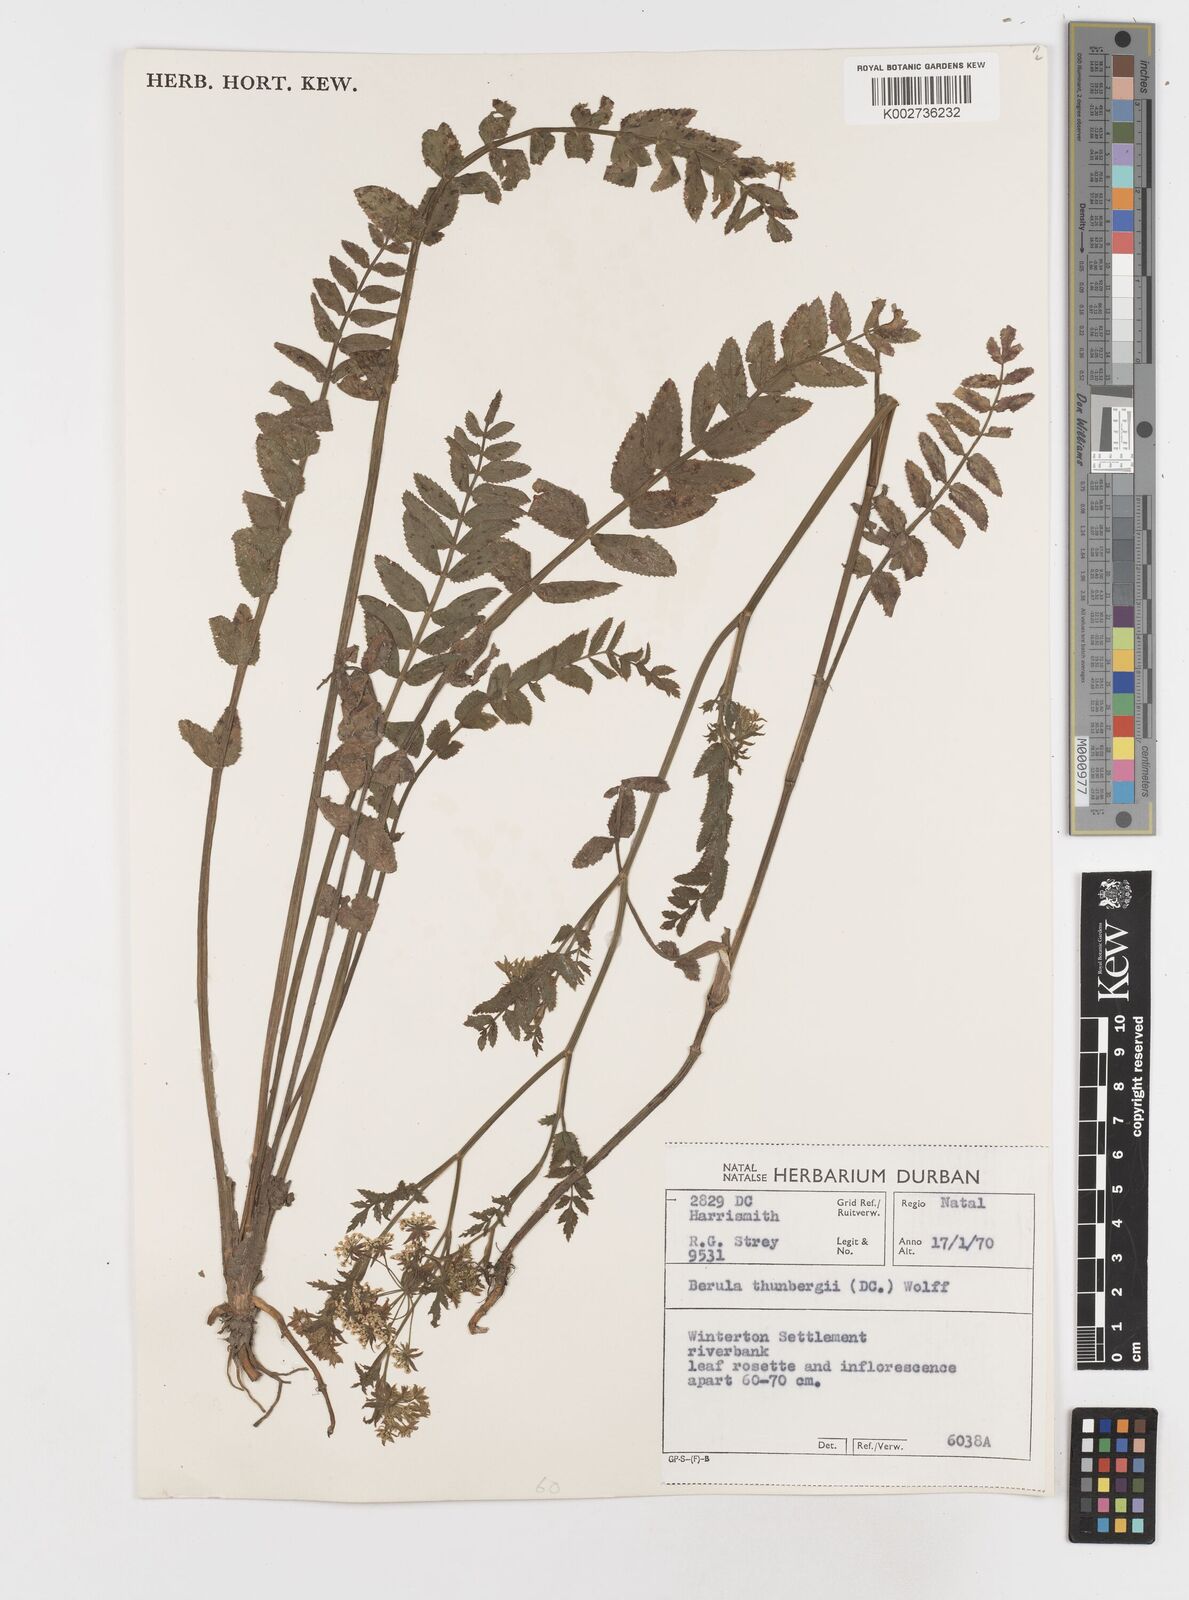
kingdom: Plantae
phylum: Tracheophyta
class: Magnoliopsida
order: Apiales
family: Apiaceae
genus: Berula
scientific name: Berula erecta
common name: Lesser water-parsnip
